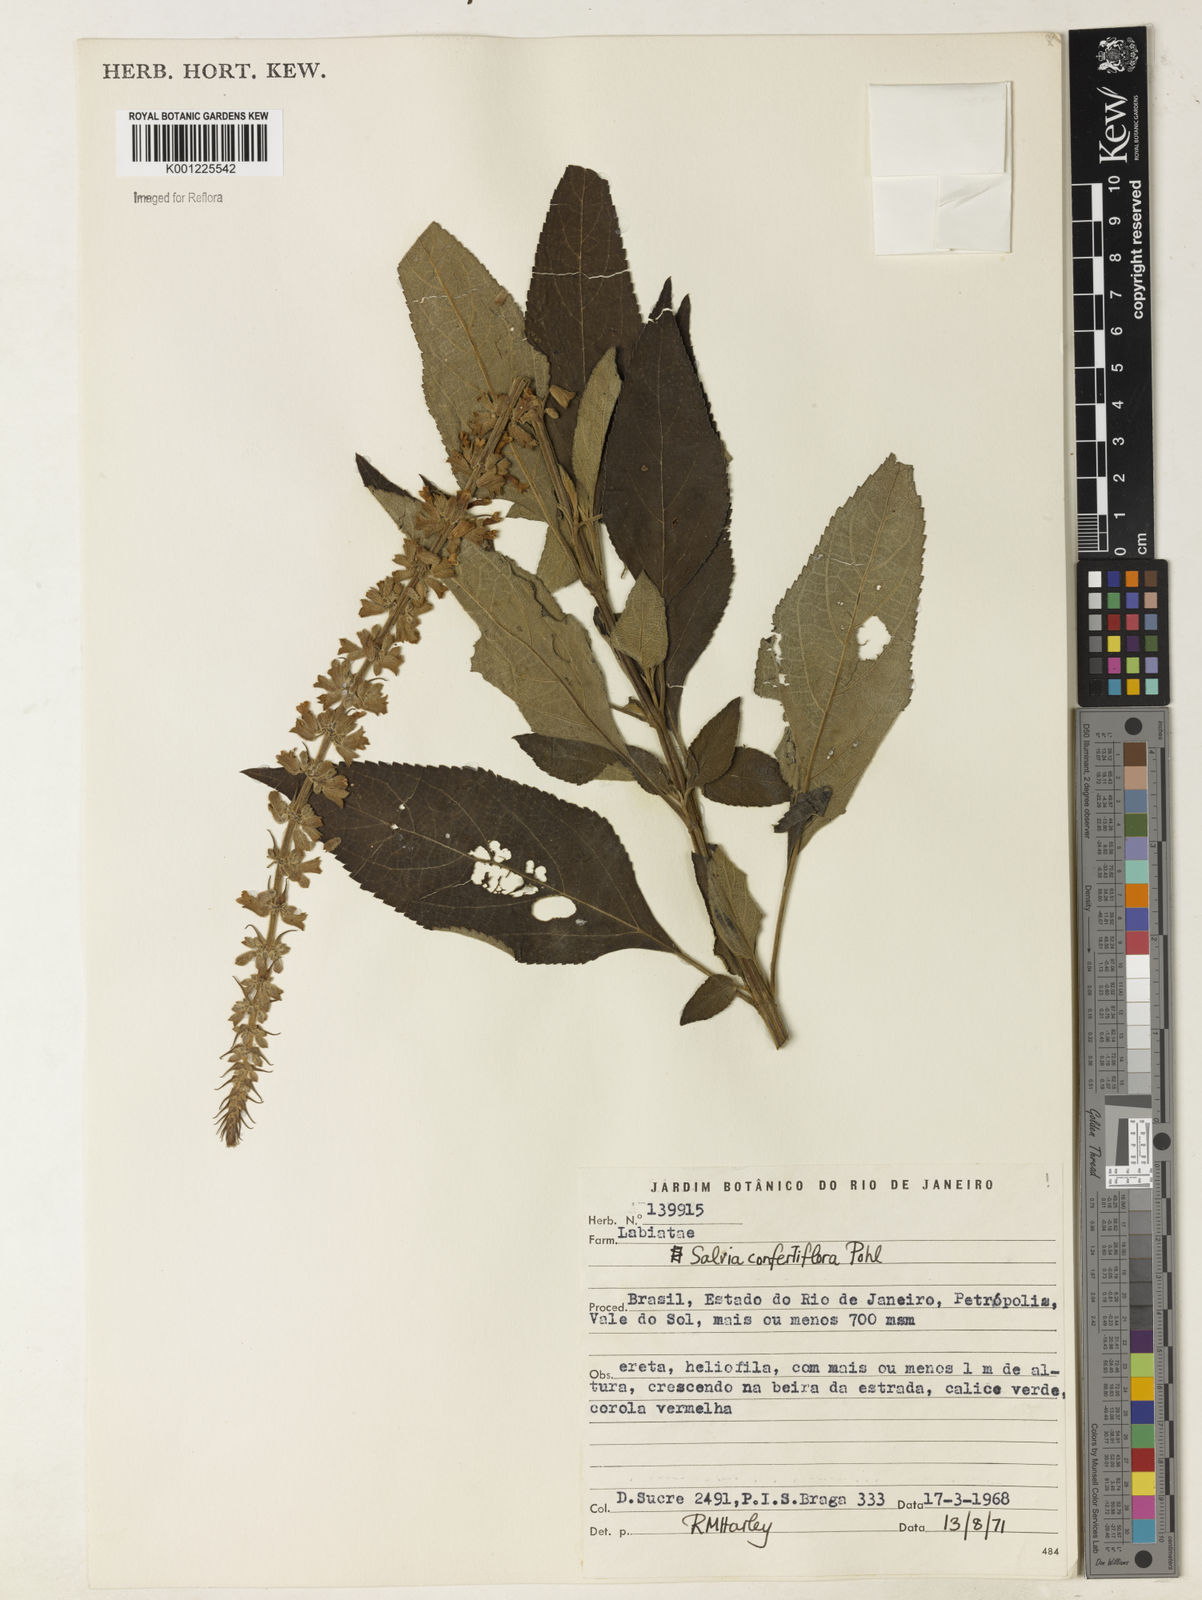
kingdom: Plantae
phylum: Tracheophyta
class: Magnoliopsida
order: Lamiales
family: Lamiaceae
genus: Salvia
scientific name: Salvia confertiflora
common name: Sabra-spike sage
